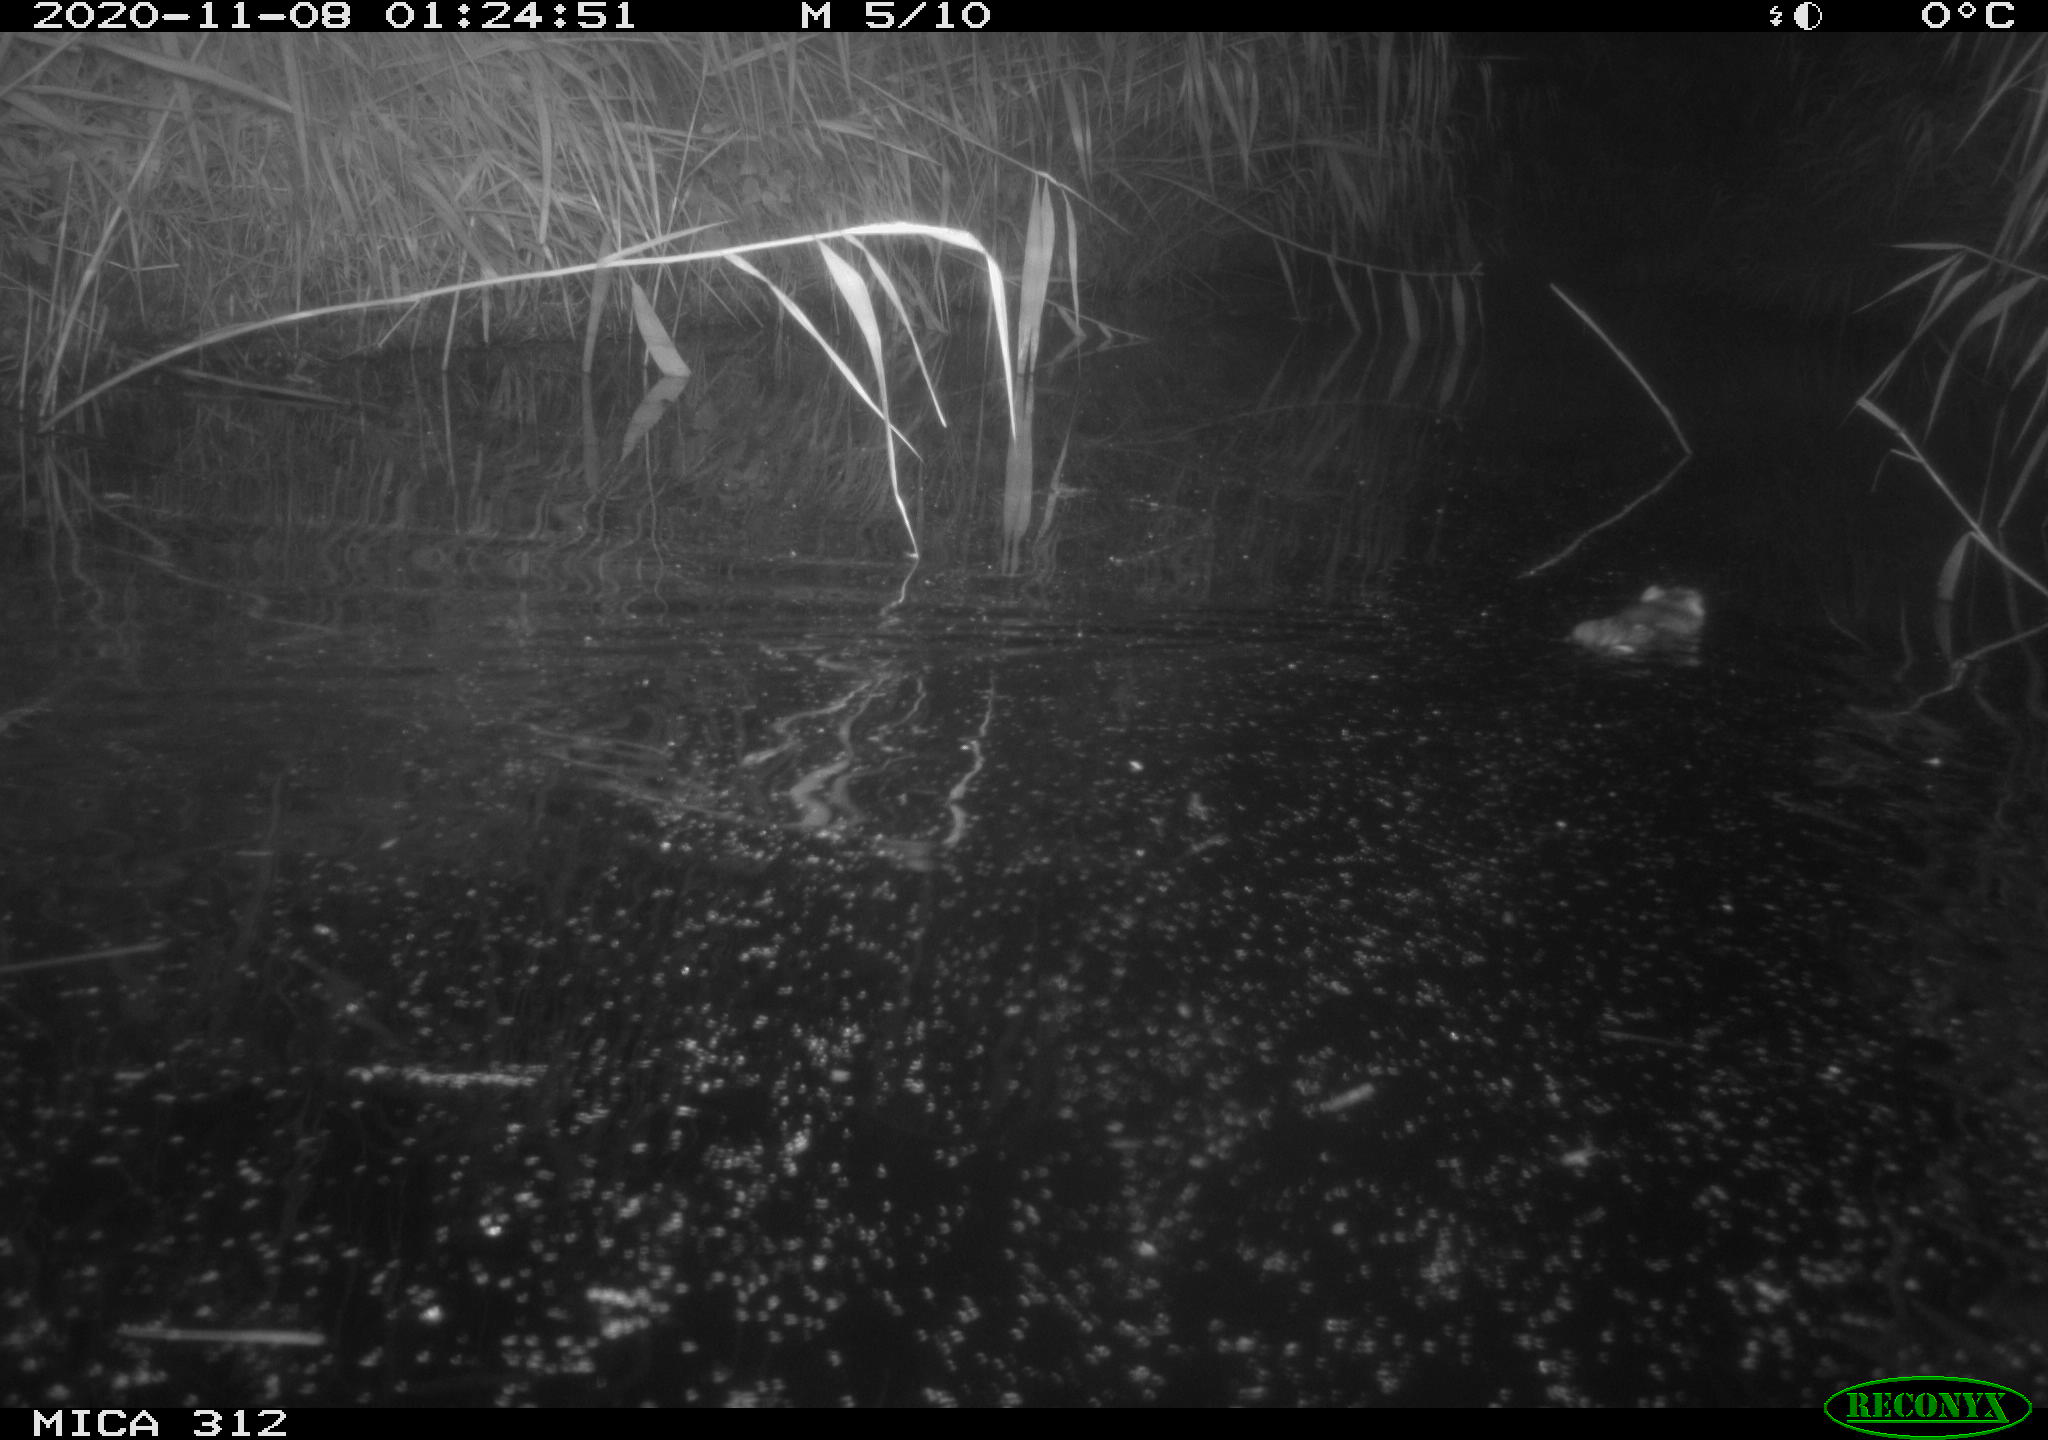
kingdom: Animalia
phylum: Chordata
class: Mammalia
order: Rodentia
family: Muridae
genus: Rattus
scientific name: Rattus norvegicus
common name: Brown rat
